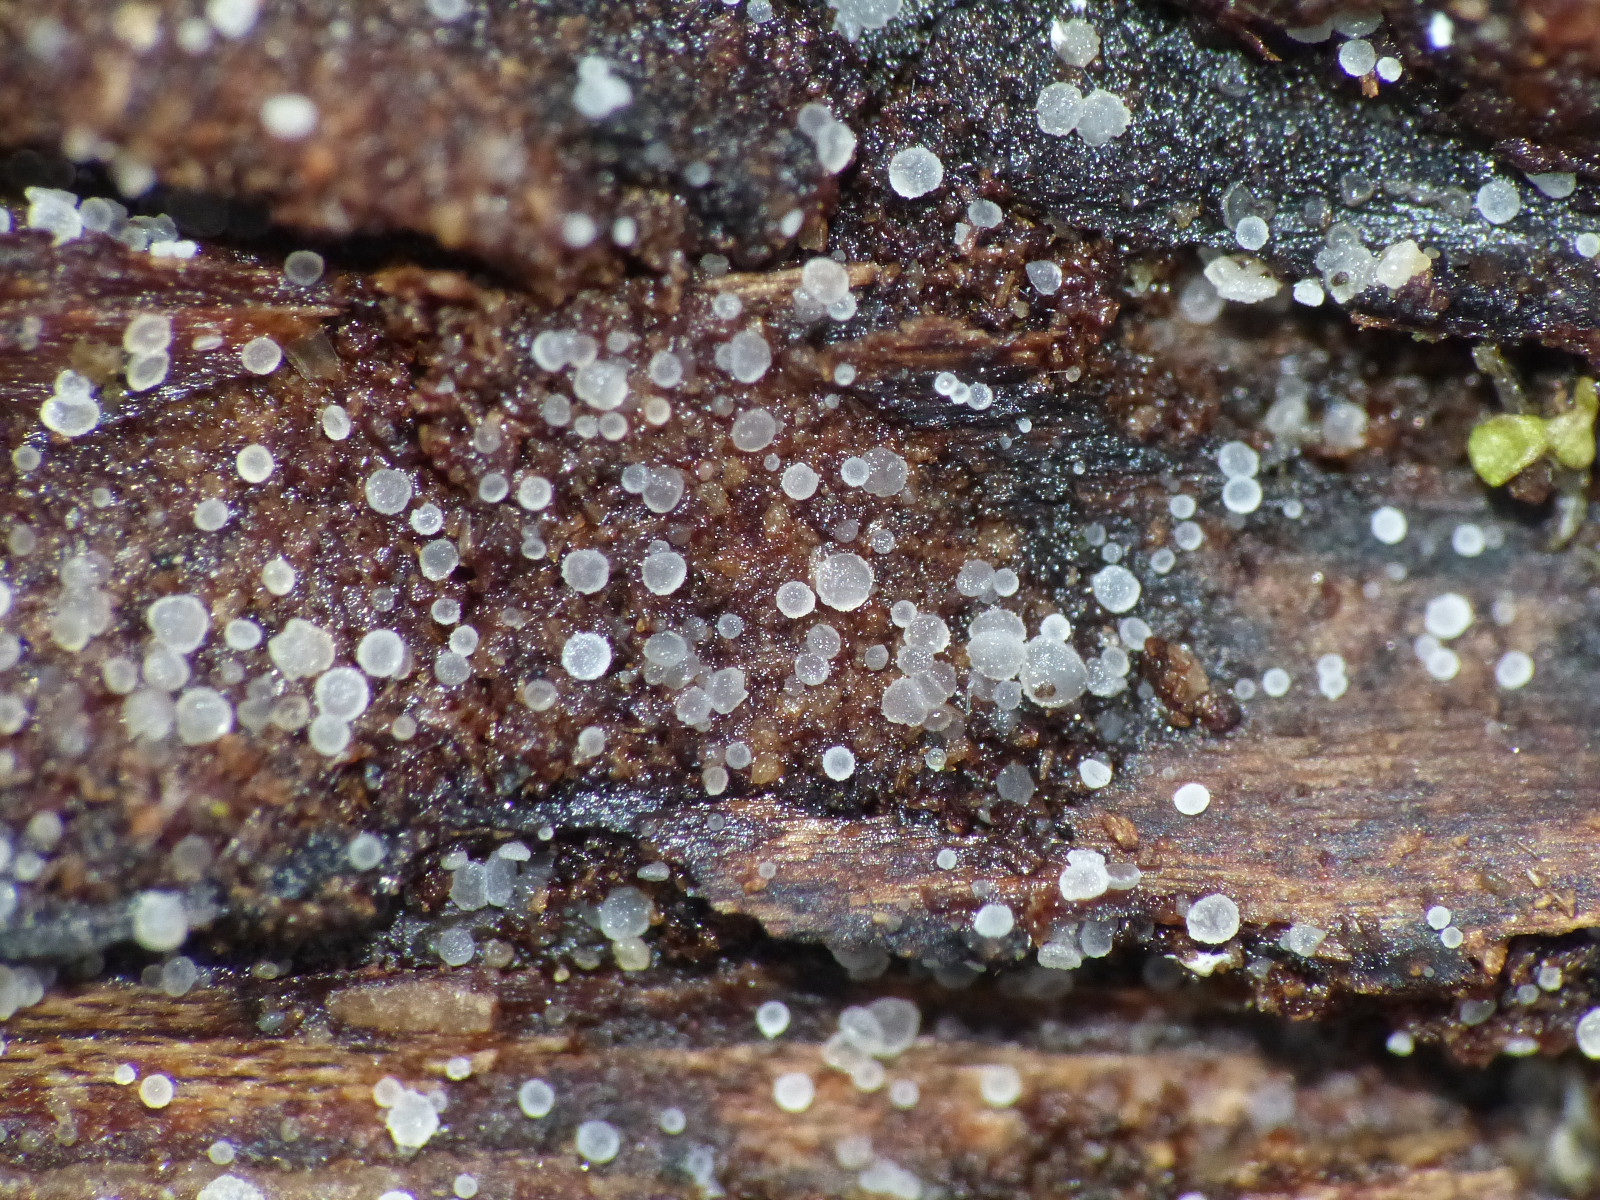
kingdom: Fungi
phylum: Ascomycota
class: Leotiomycetes
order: Helotiales
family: Hyaloscyphaceae
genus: Hyaloscypha
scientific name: Hyaloscypha
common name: klarskive
